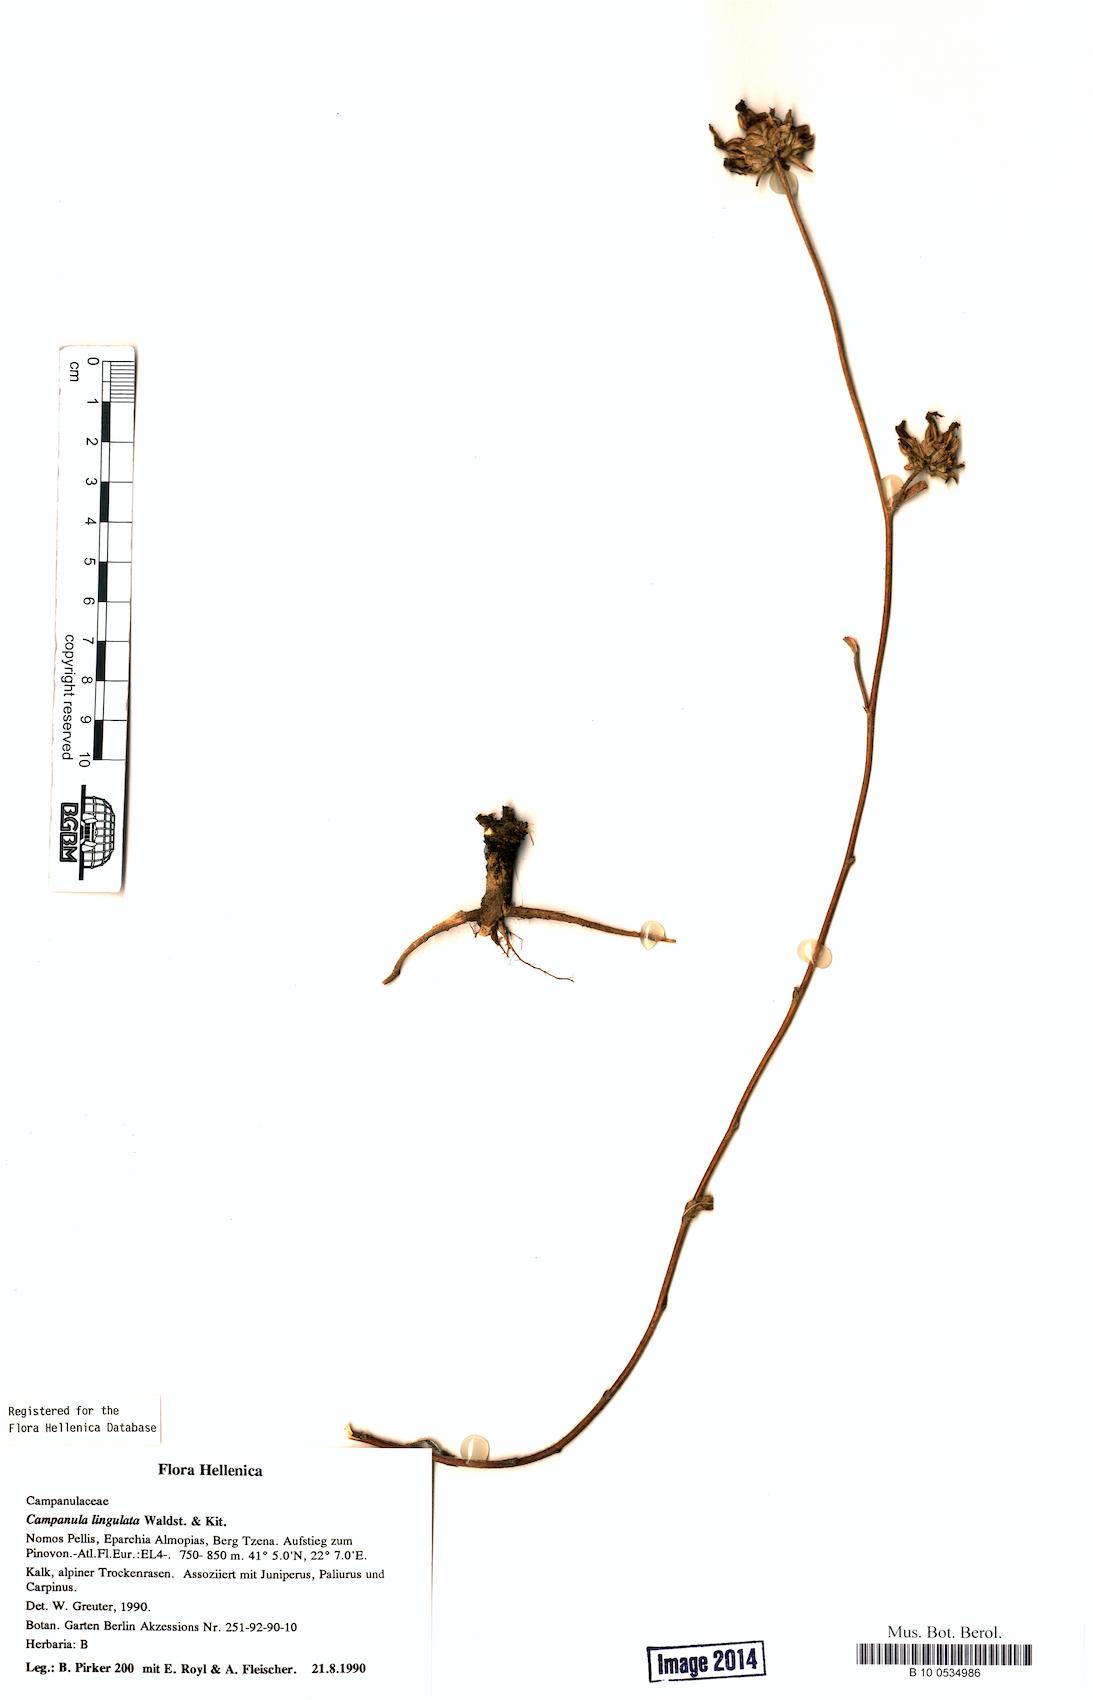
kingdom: Plantae
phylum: Tracheophyta
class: Magnoliopsida
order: Asterales
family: Campanulaceae
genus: Campanula
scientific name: Campanula lingulata
